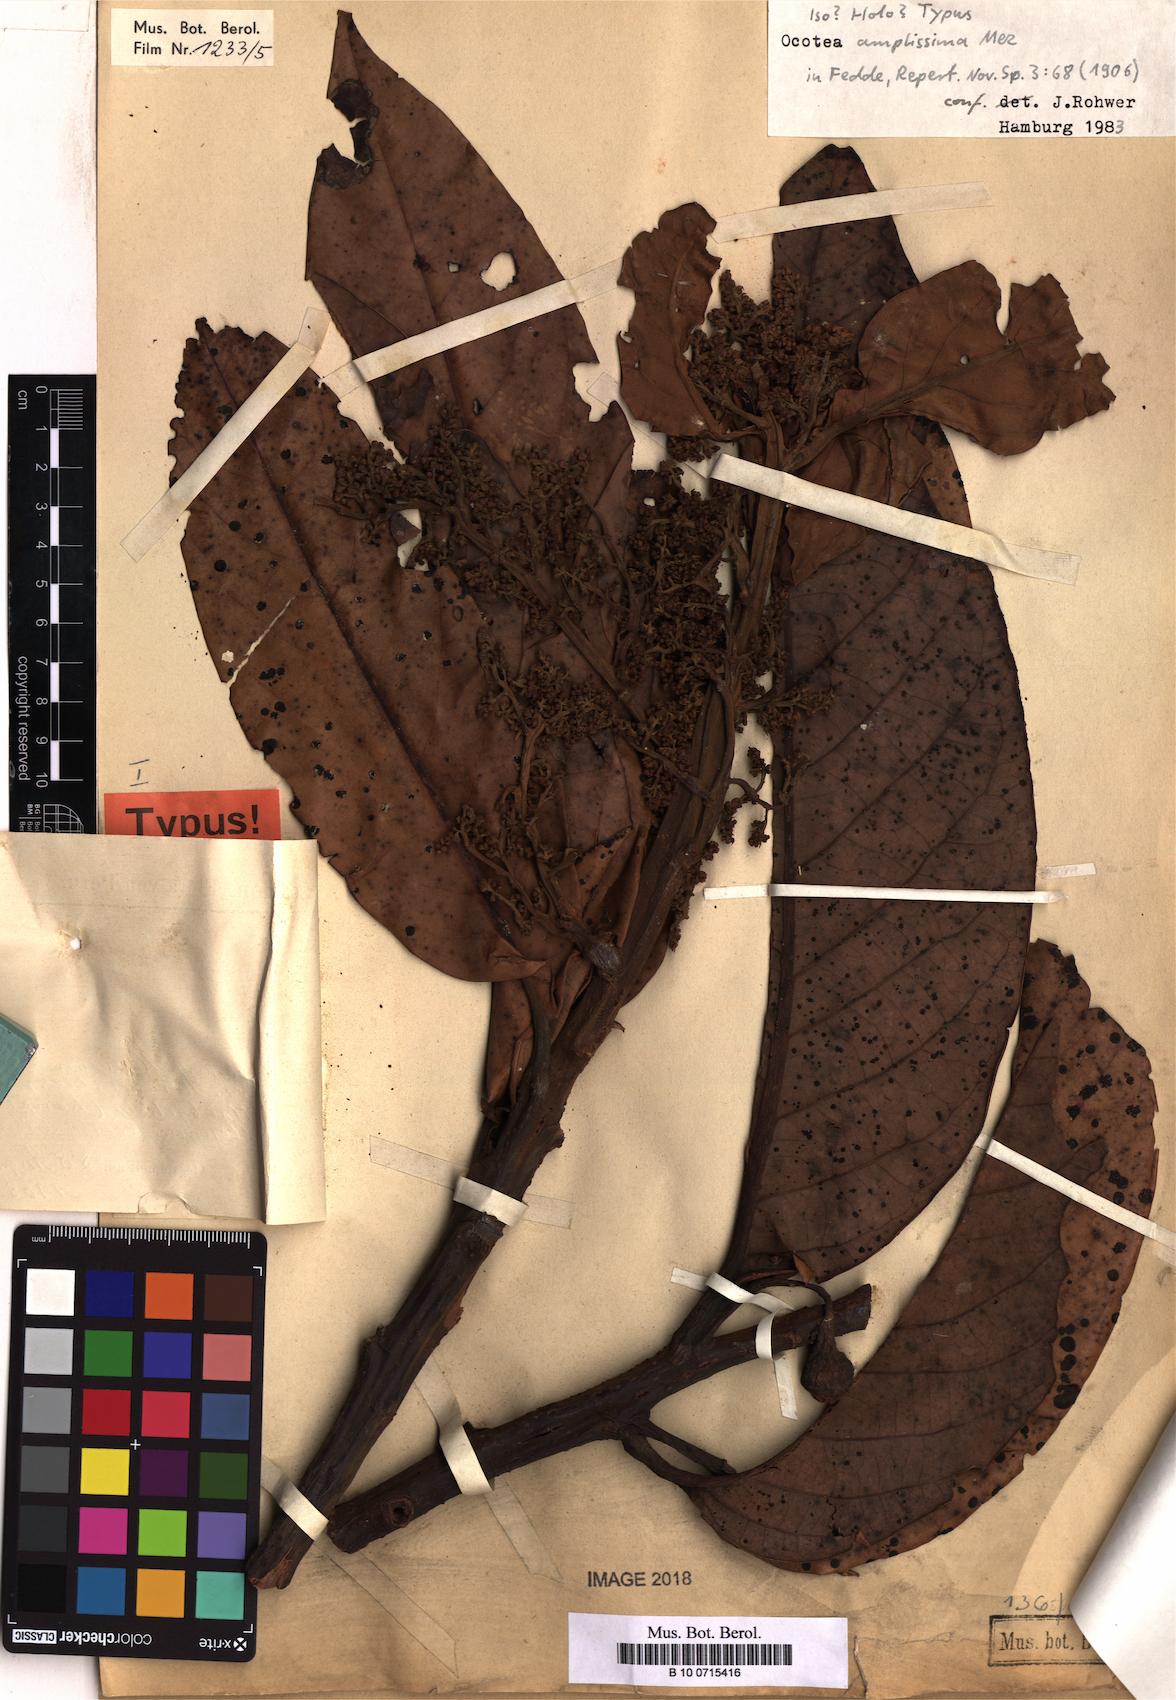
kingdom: Plantae
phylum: Tracheophyta
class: Magnoliopsida
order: Laurales
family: Lauraceae
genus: Ocotea
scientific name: Ocotea amplissima
